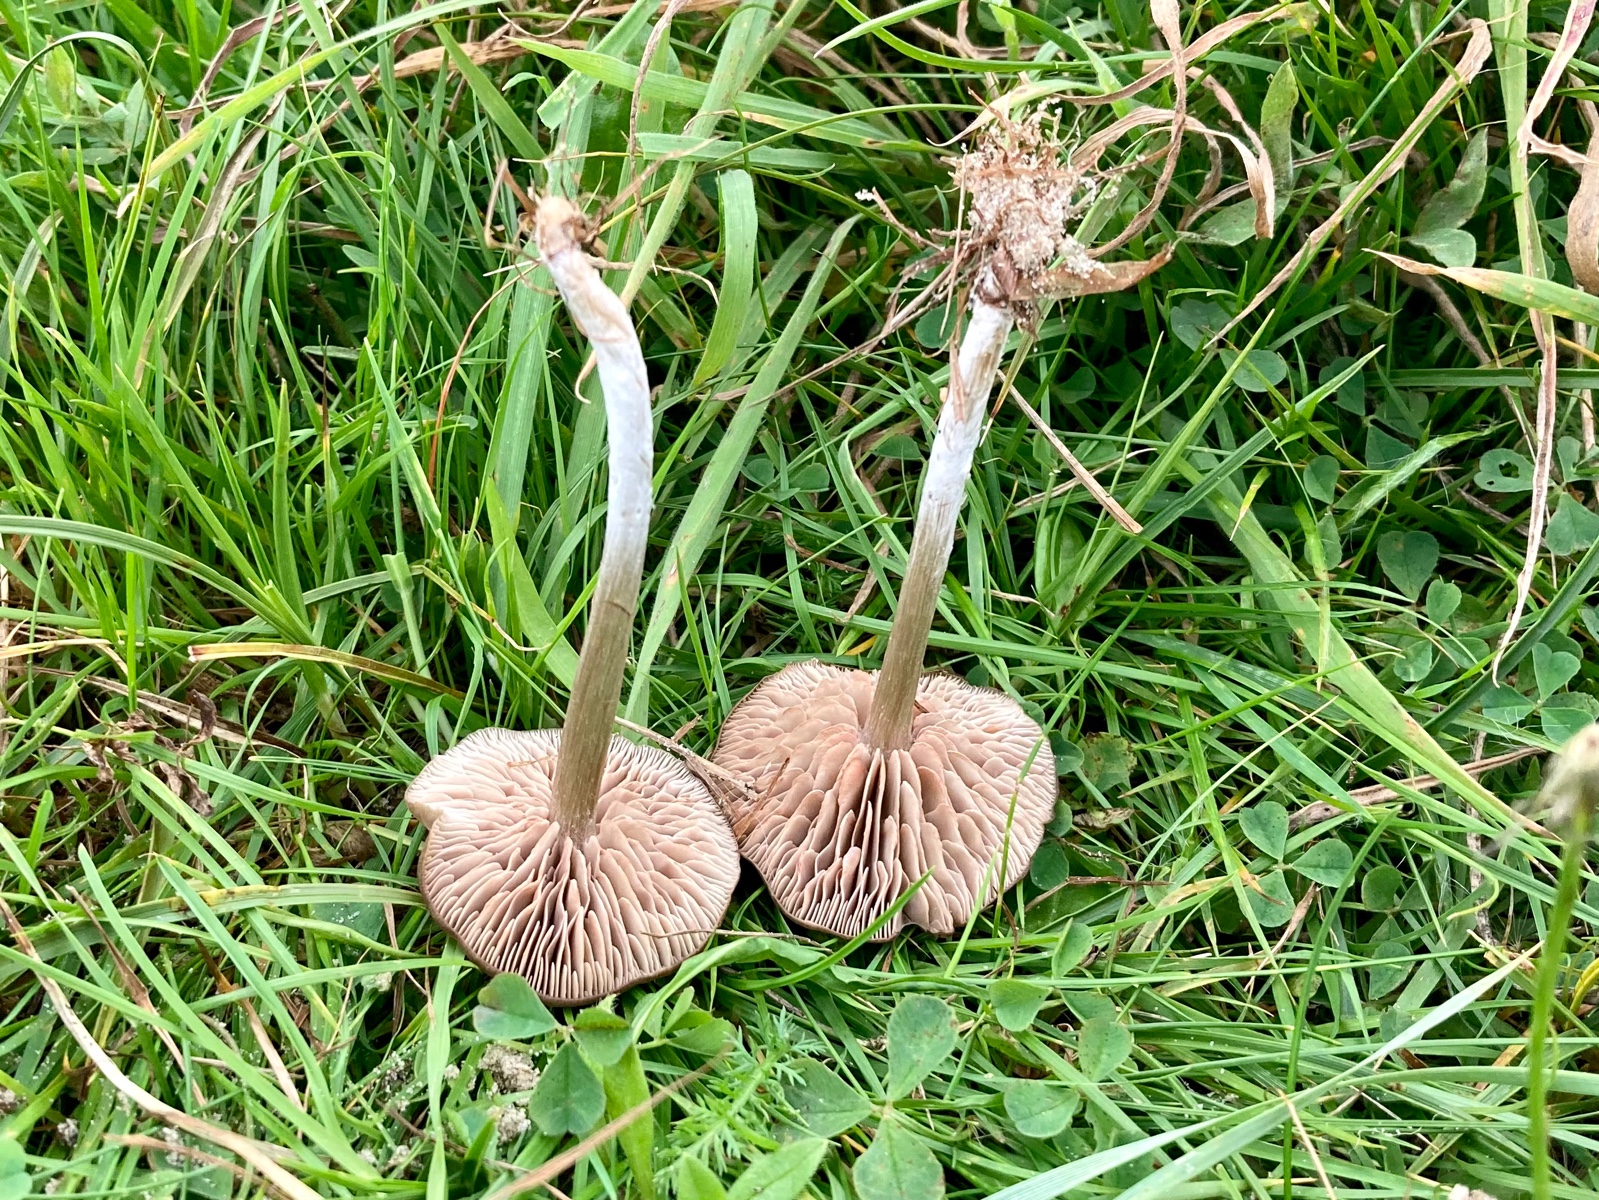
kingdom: Fungi
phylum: Basidiomycota
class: Agaricomycetes
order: Agaricales
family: Entolomataceae
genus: Entoloma
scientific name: Entoloma
